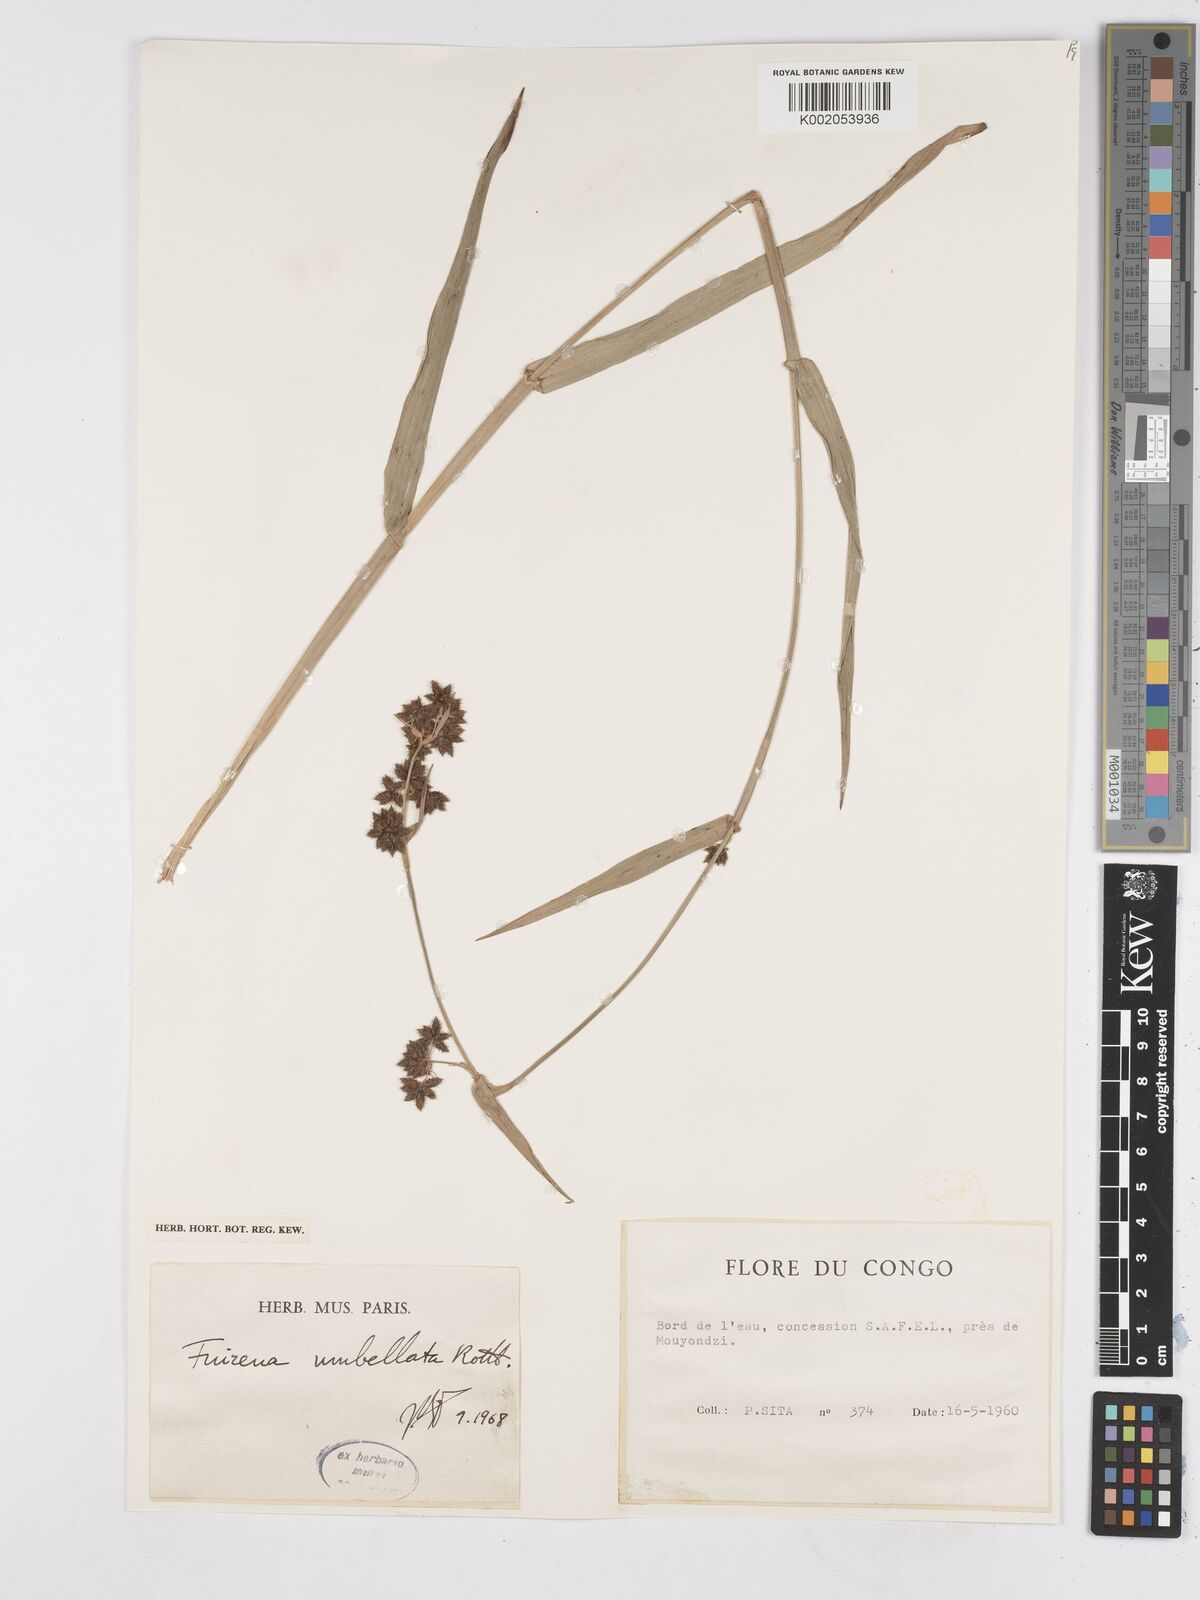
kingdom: Plantae
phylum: Tracheophyta
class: Liliopsida
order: Poales
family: Cyperaceae
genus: Fuirena
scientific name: Fuirena umbellata
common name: Yefen
